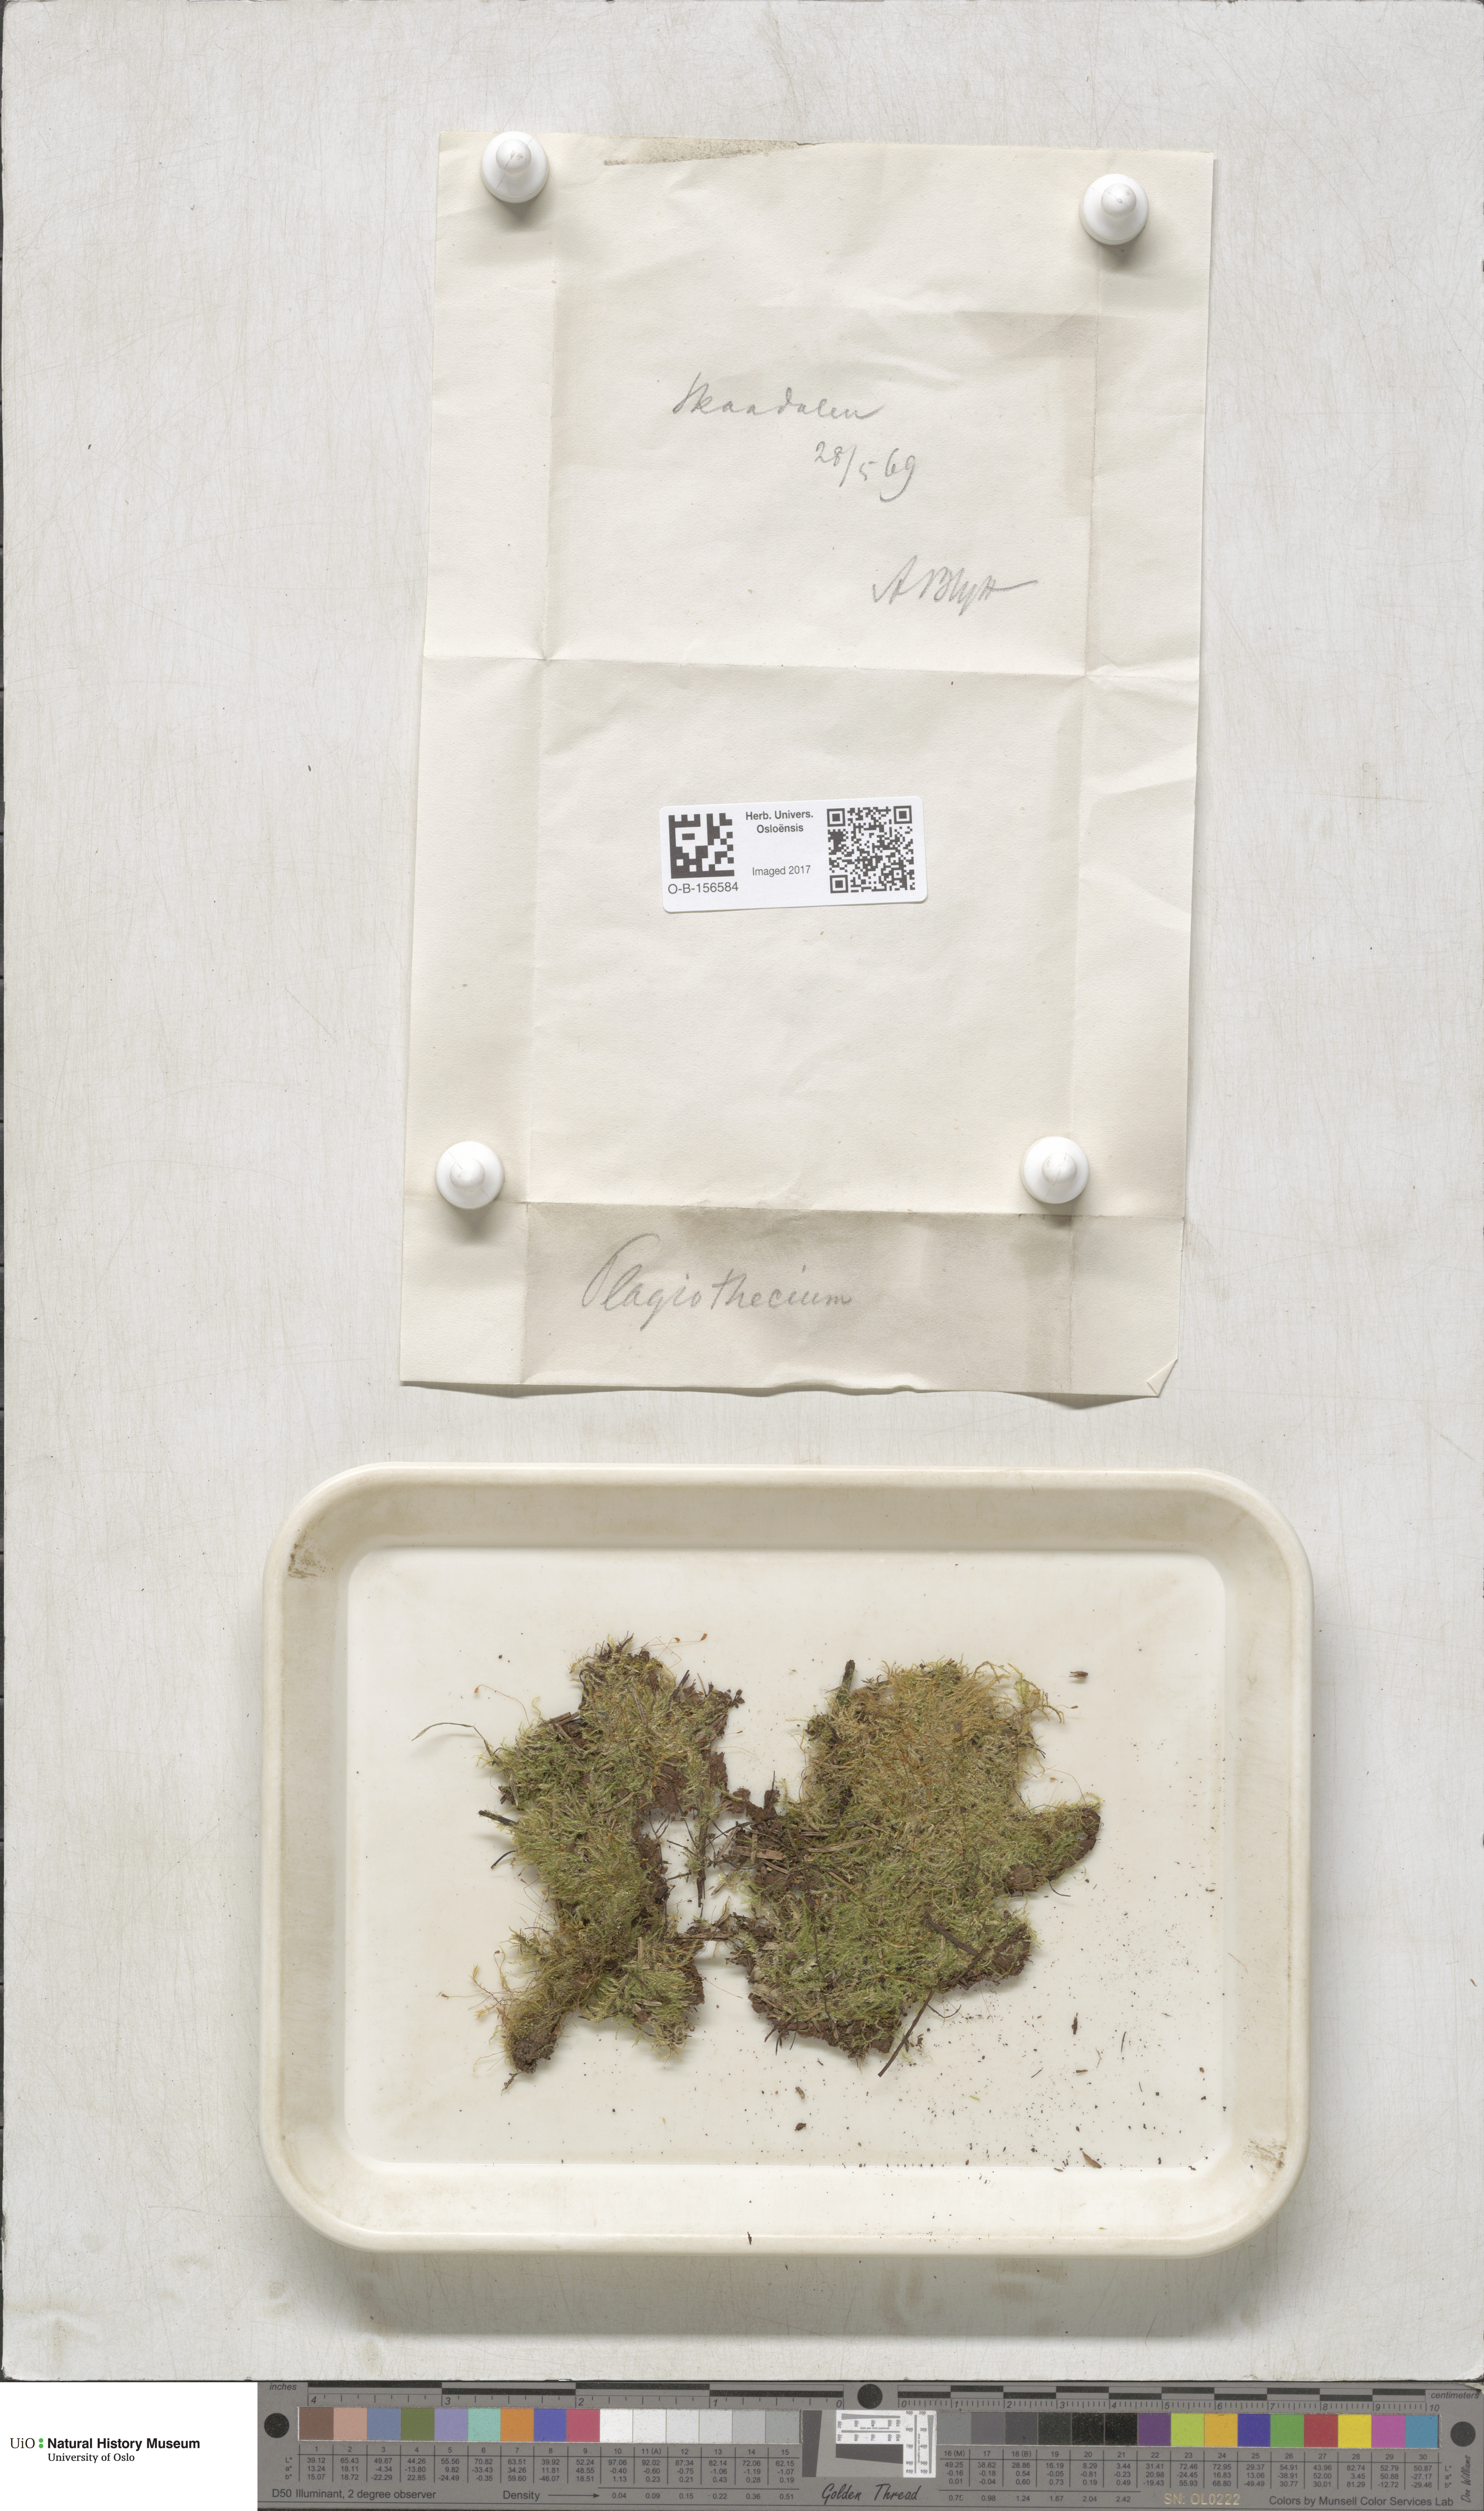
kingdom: Plantae
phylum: Bryophyta
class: Bryopsida
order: Hypnales
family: Plagiotheciaceae
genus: Plagiothecium
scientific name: Plagiothecium
